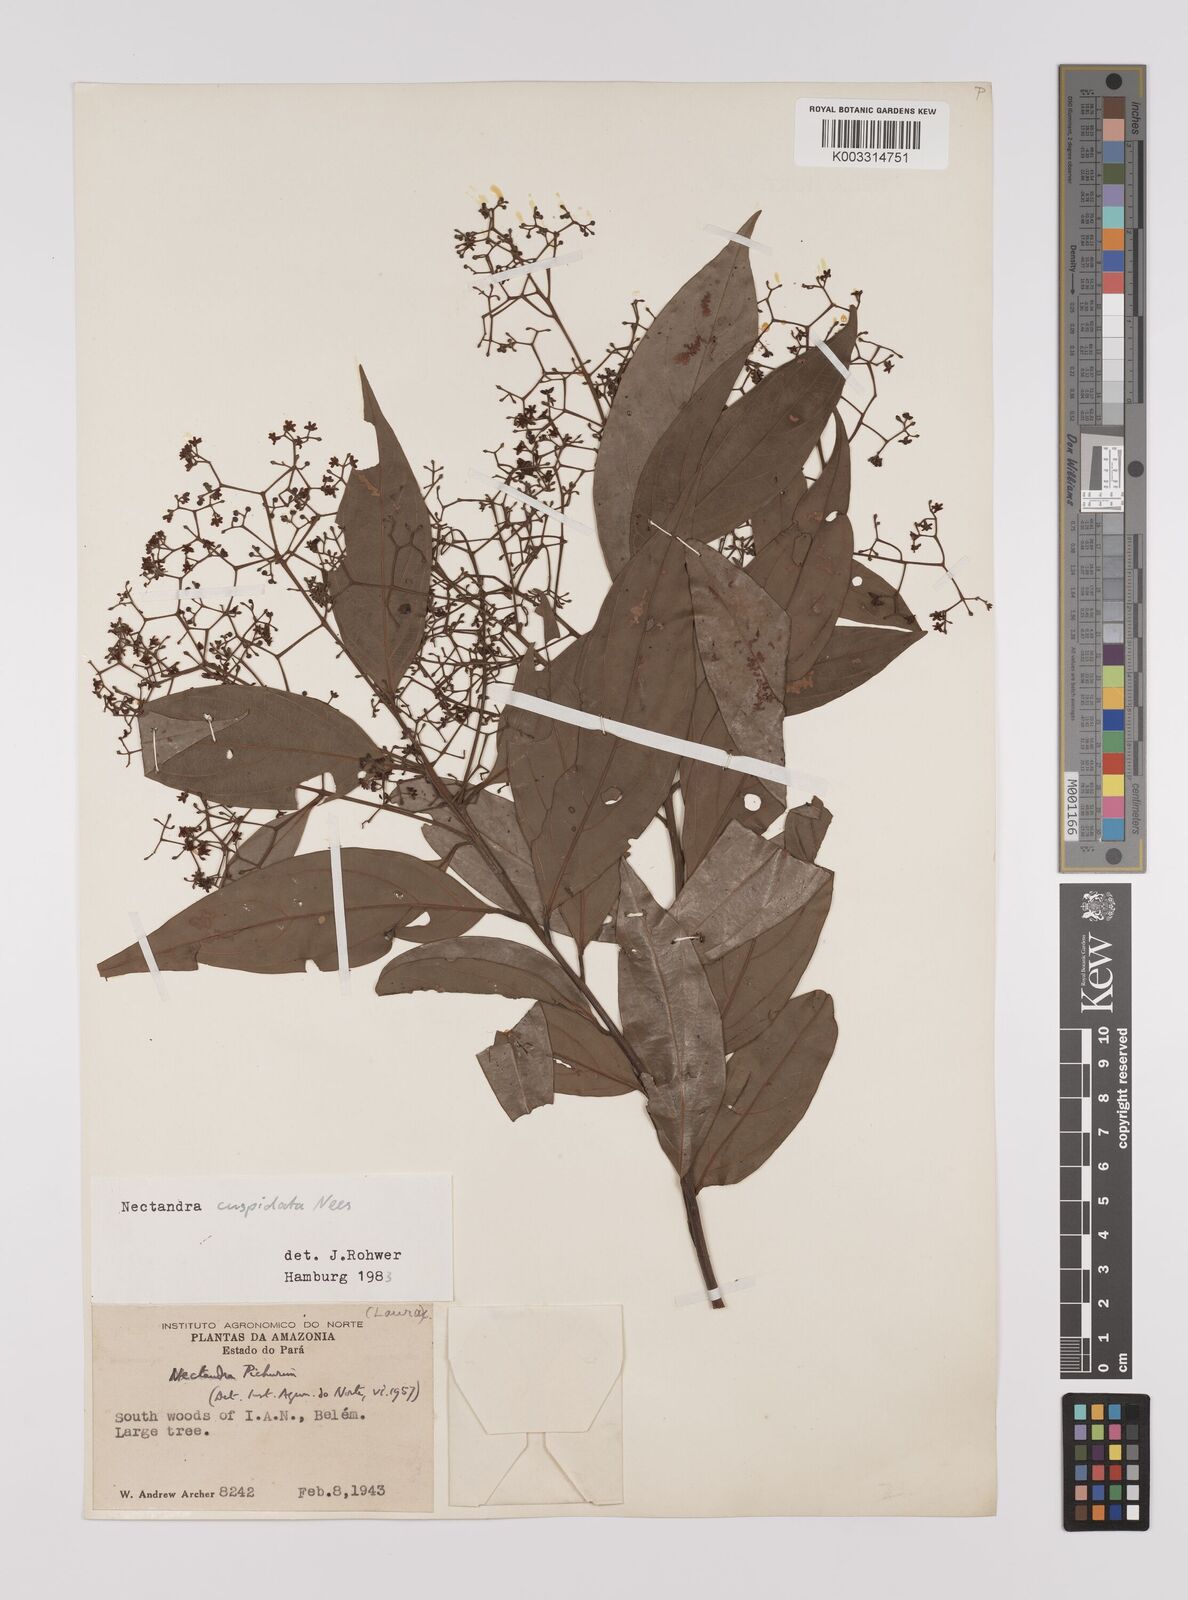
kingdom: Plantae
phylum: Tracheophyta
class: Magnoliopsida
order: Laurales
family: Lauraceae
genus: Nectandra
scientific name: Nectandra cuspidata
